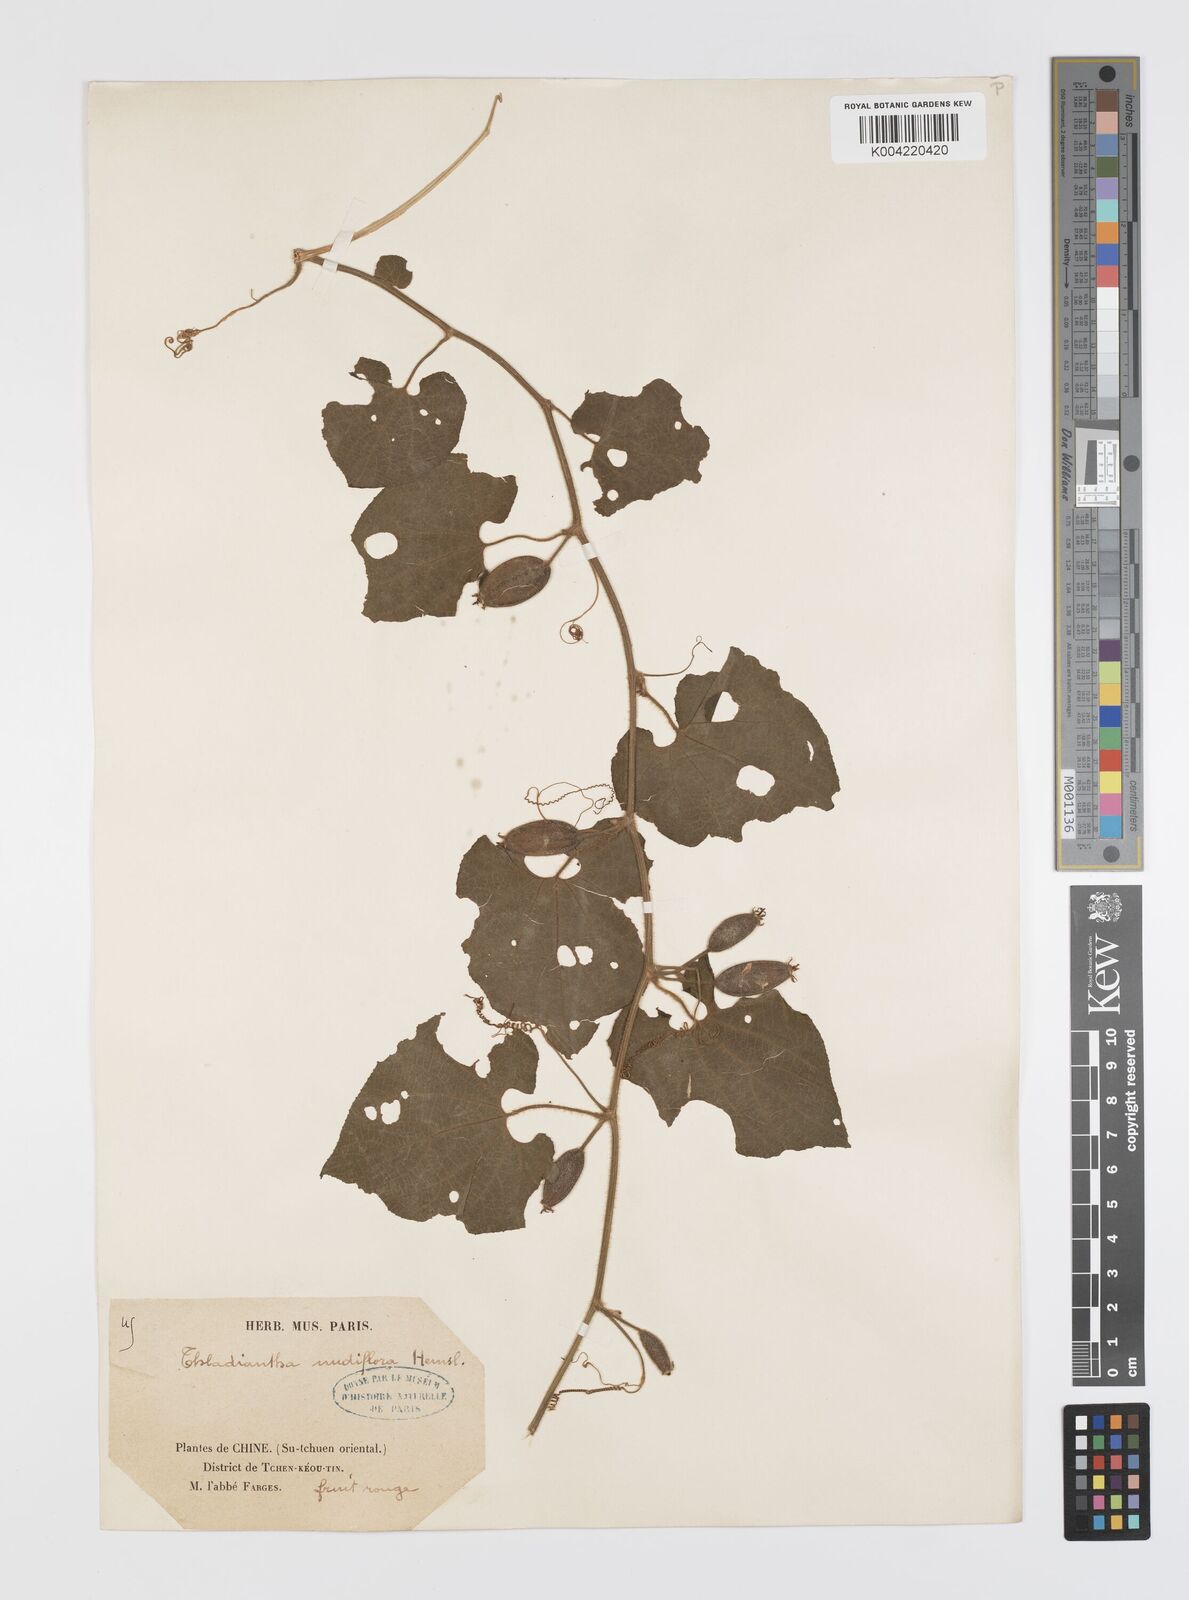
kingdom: Plantae
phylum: Tracheophyta
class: Magnoliopsida
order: Cucurbitales
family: Cucurbitaceae
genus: Thladiantha
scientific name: Thladiantha nudiflora
